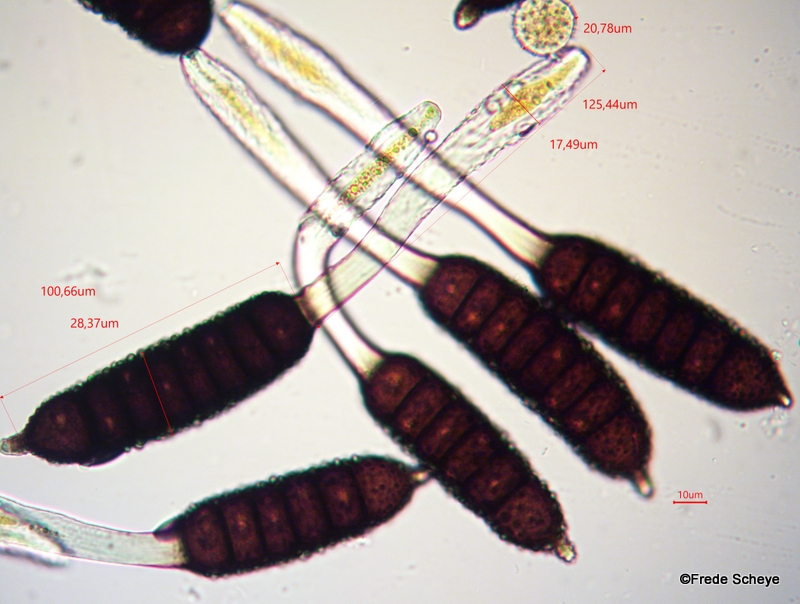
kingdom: Fungi
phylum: Basidiomycota
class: Pucciniomycetes
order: Pucciniales
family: Phragmidiaceae
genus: Phragmidium
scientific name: Phragmidium rubi-idaei
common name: hindbær-flercellerust
